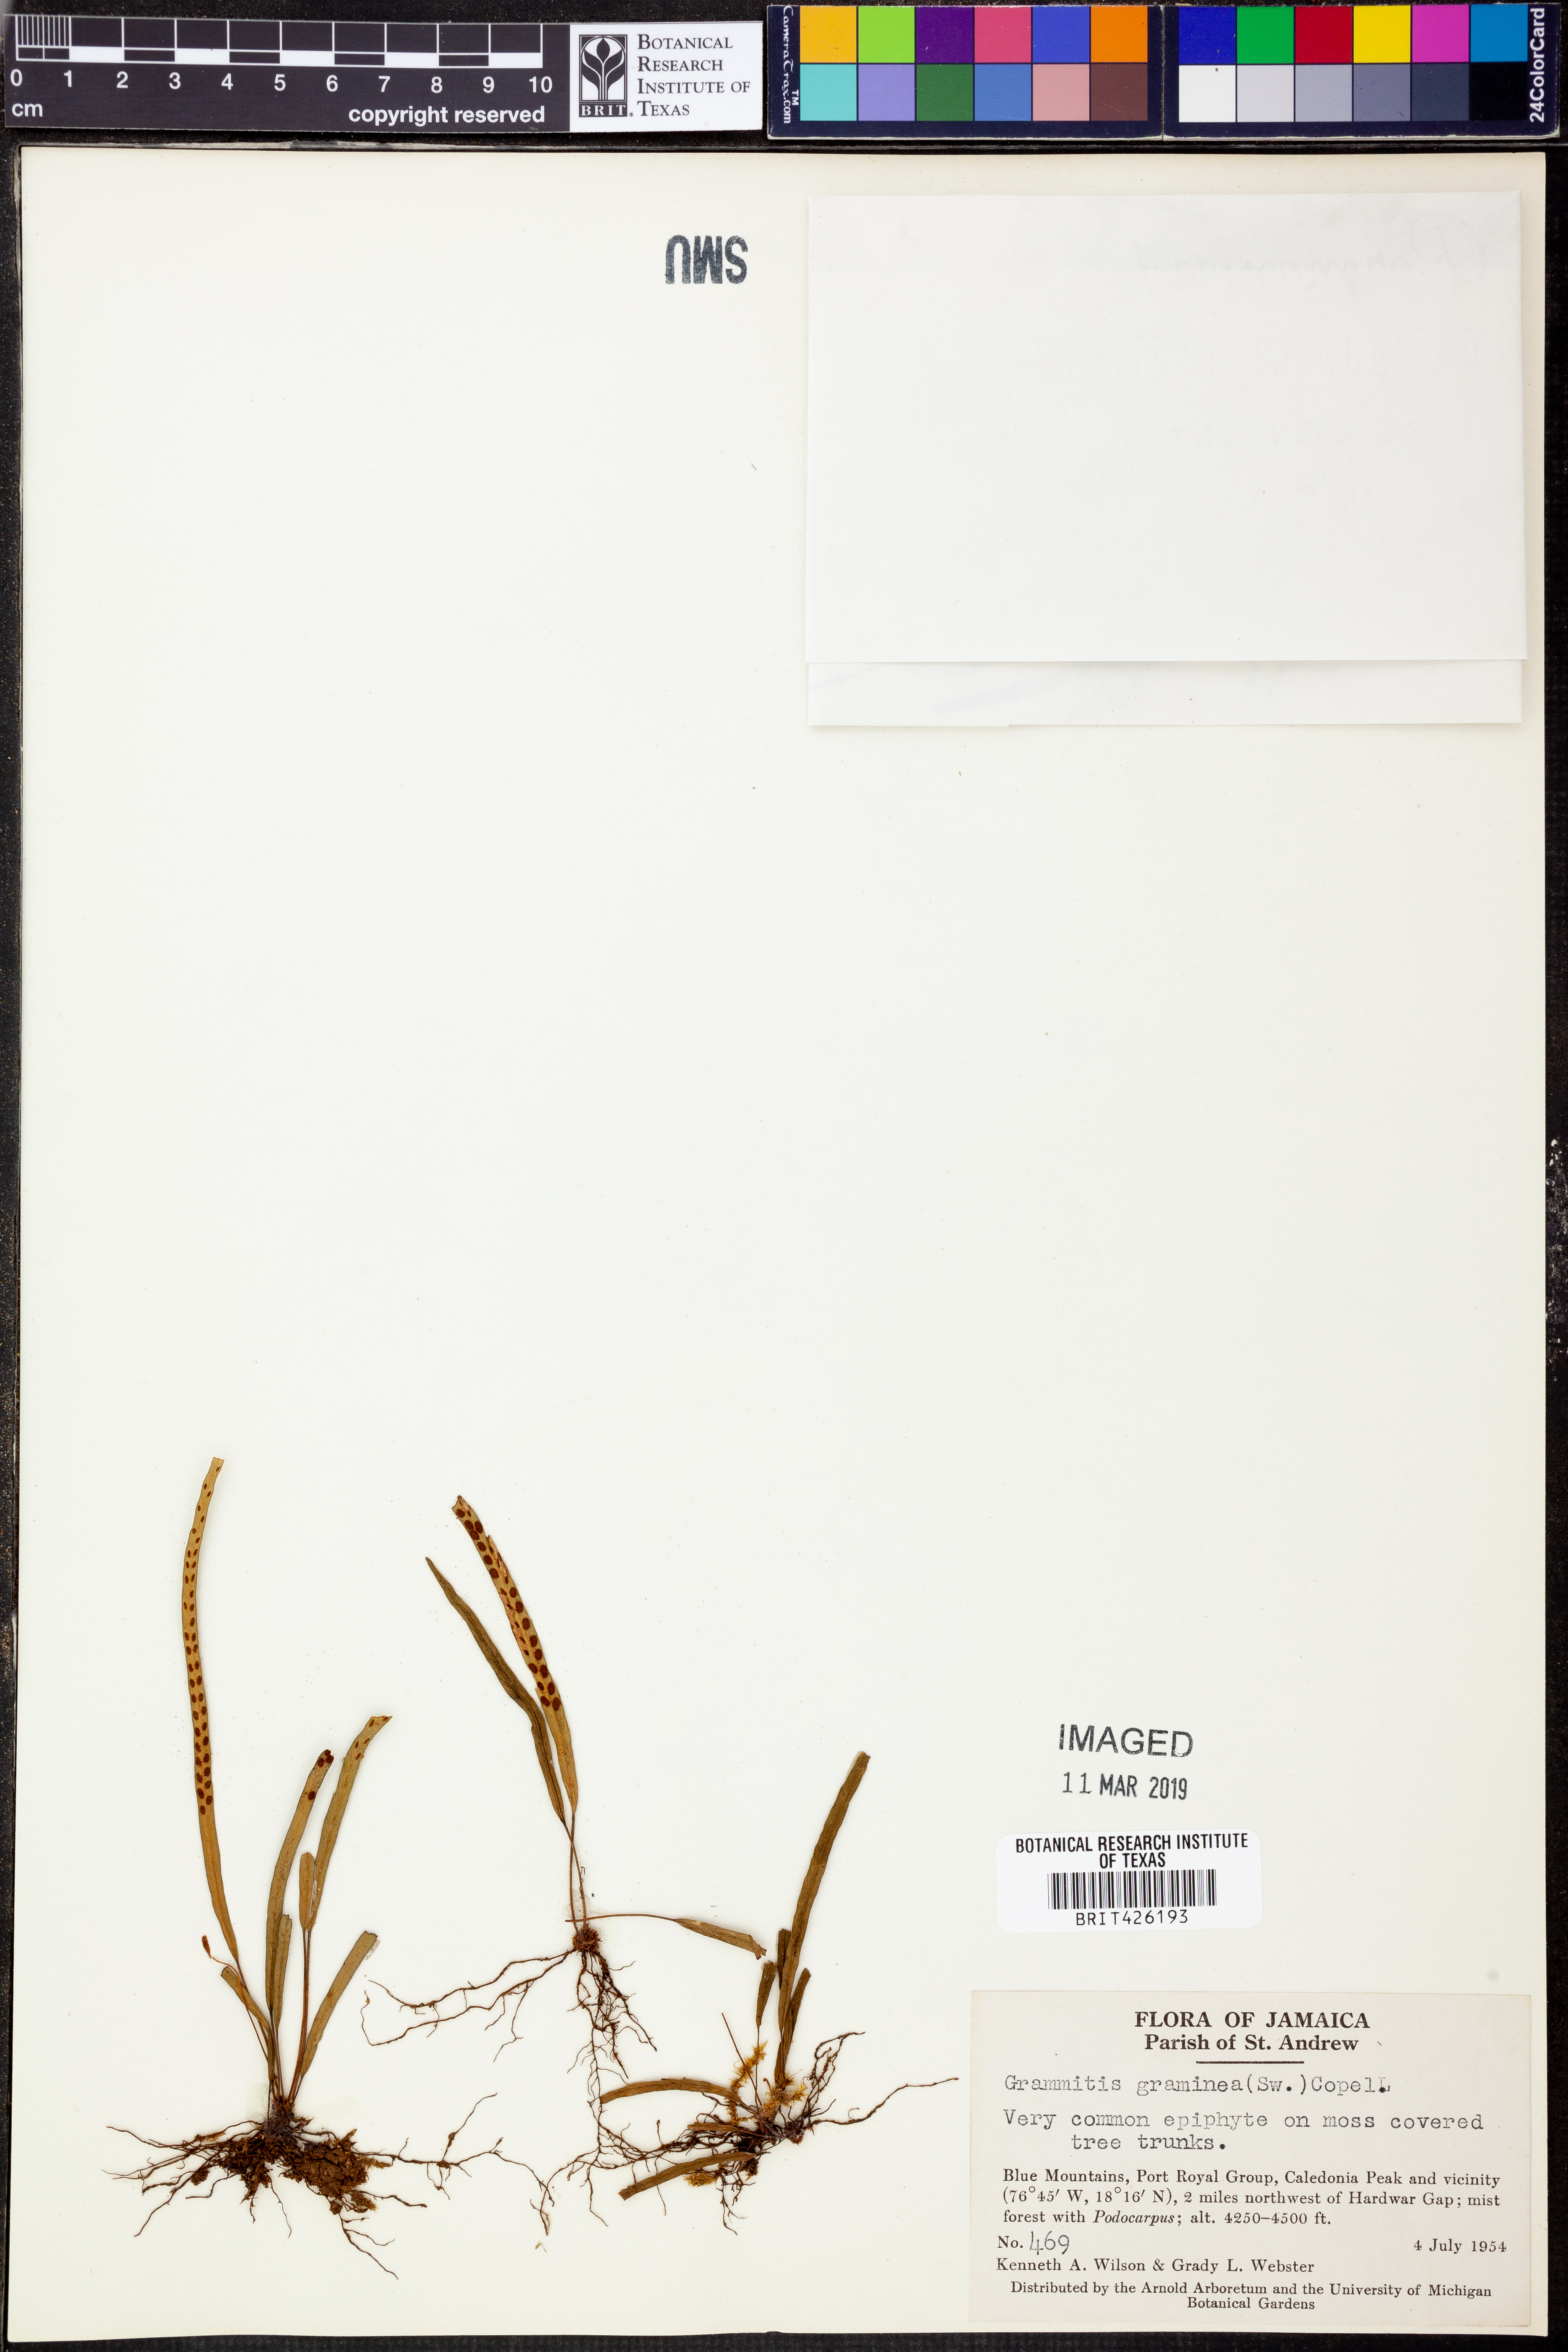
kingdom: Plantae
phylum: Tracheophyta
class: Polypodiopsida
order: Polypodiales
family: Polypodiaceae
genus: Lomaphlebia
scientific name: Lomaphlebia linearis
